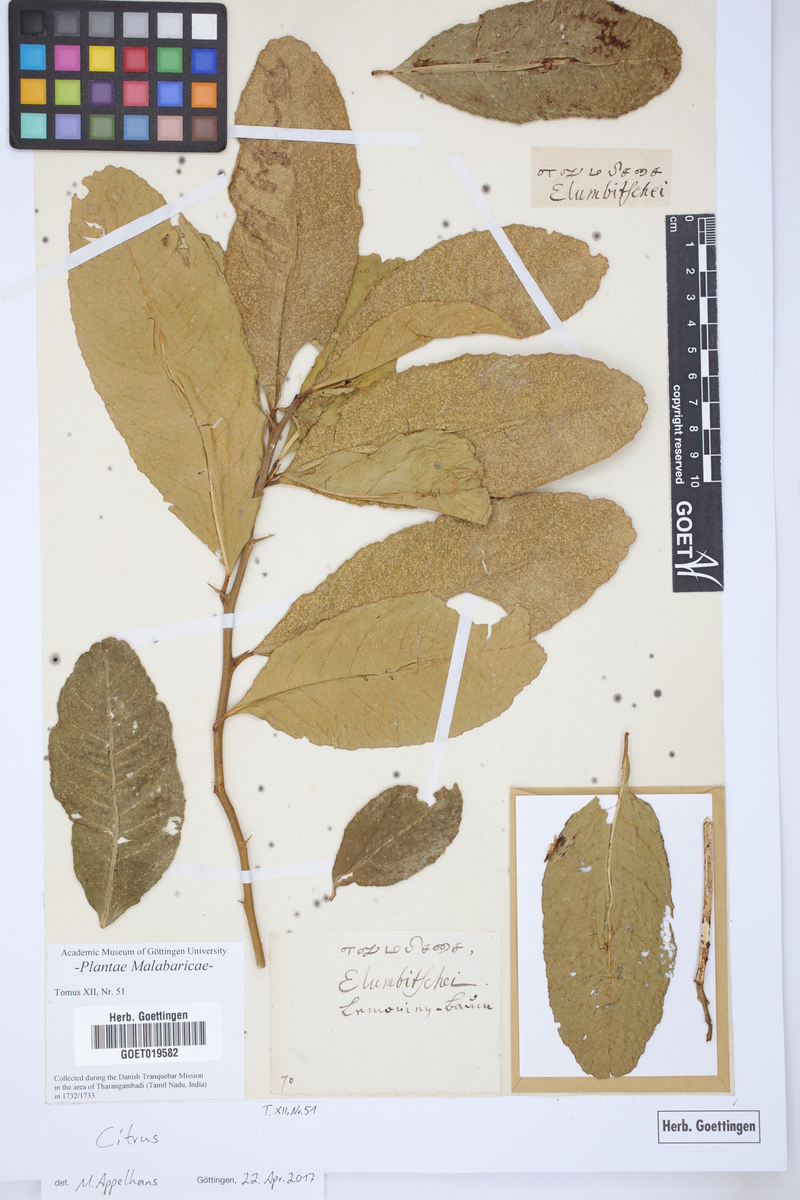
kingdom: Plantae
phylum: Tracheophyta
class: Magnoliopsida
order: Sapindales
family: Rutaceae
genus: Citrus
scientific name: Citrus
